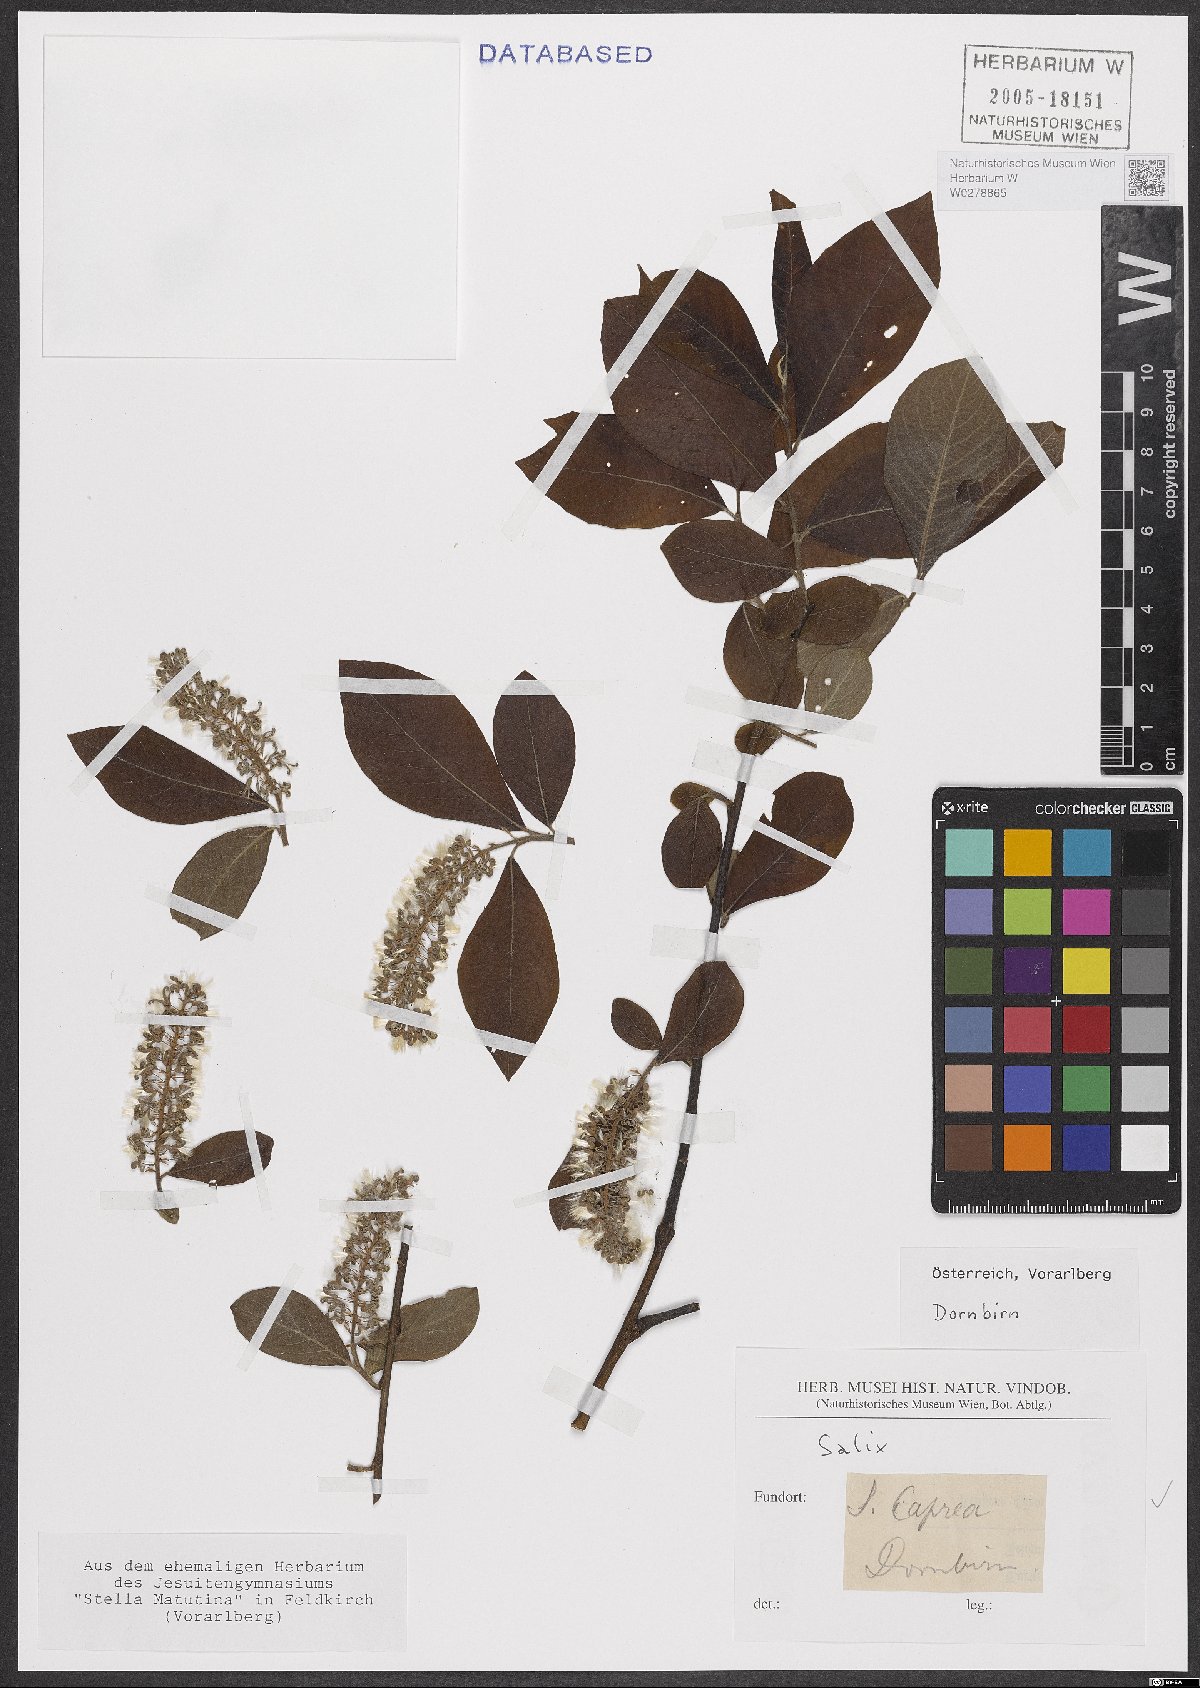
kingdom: Plantae
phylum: Tracheophyta
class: Magnoliopsida
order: Malpighiales
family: Salicaceae
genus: Salix
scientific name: Salix caprea
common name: Goat willow
